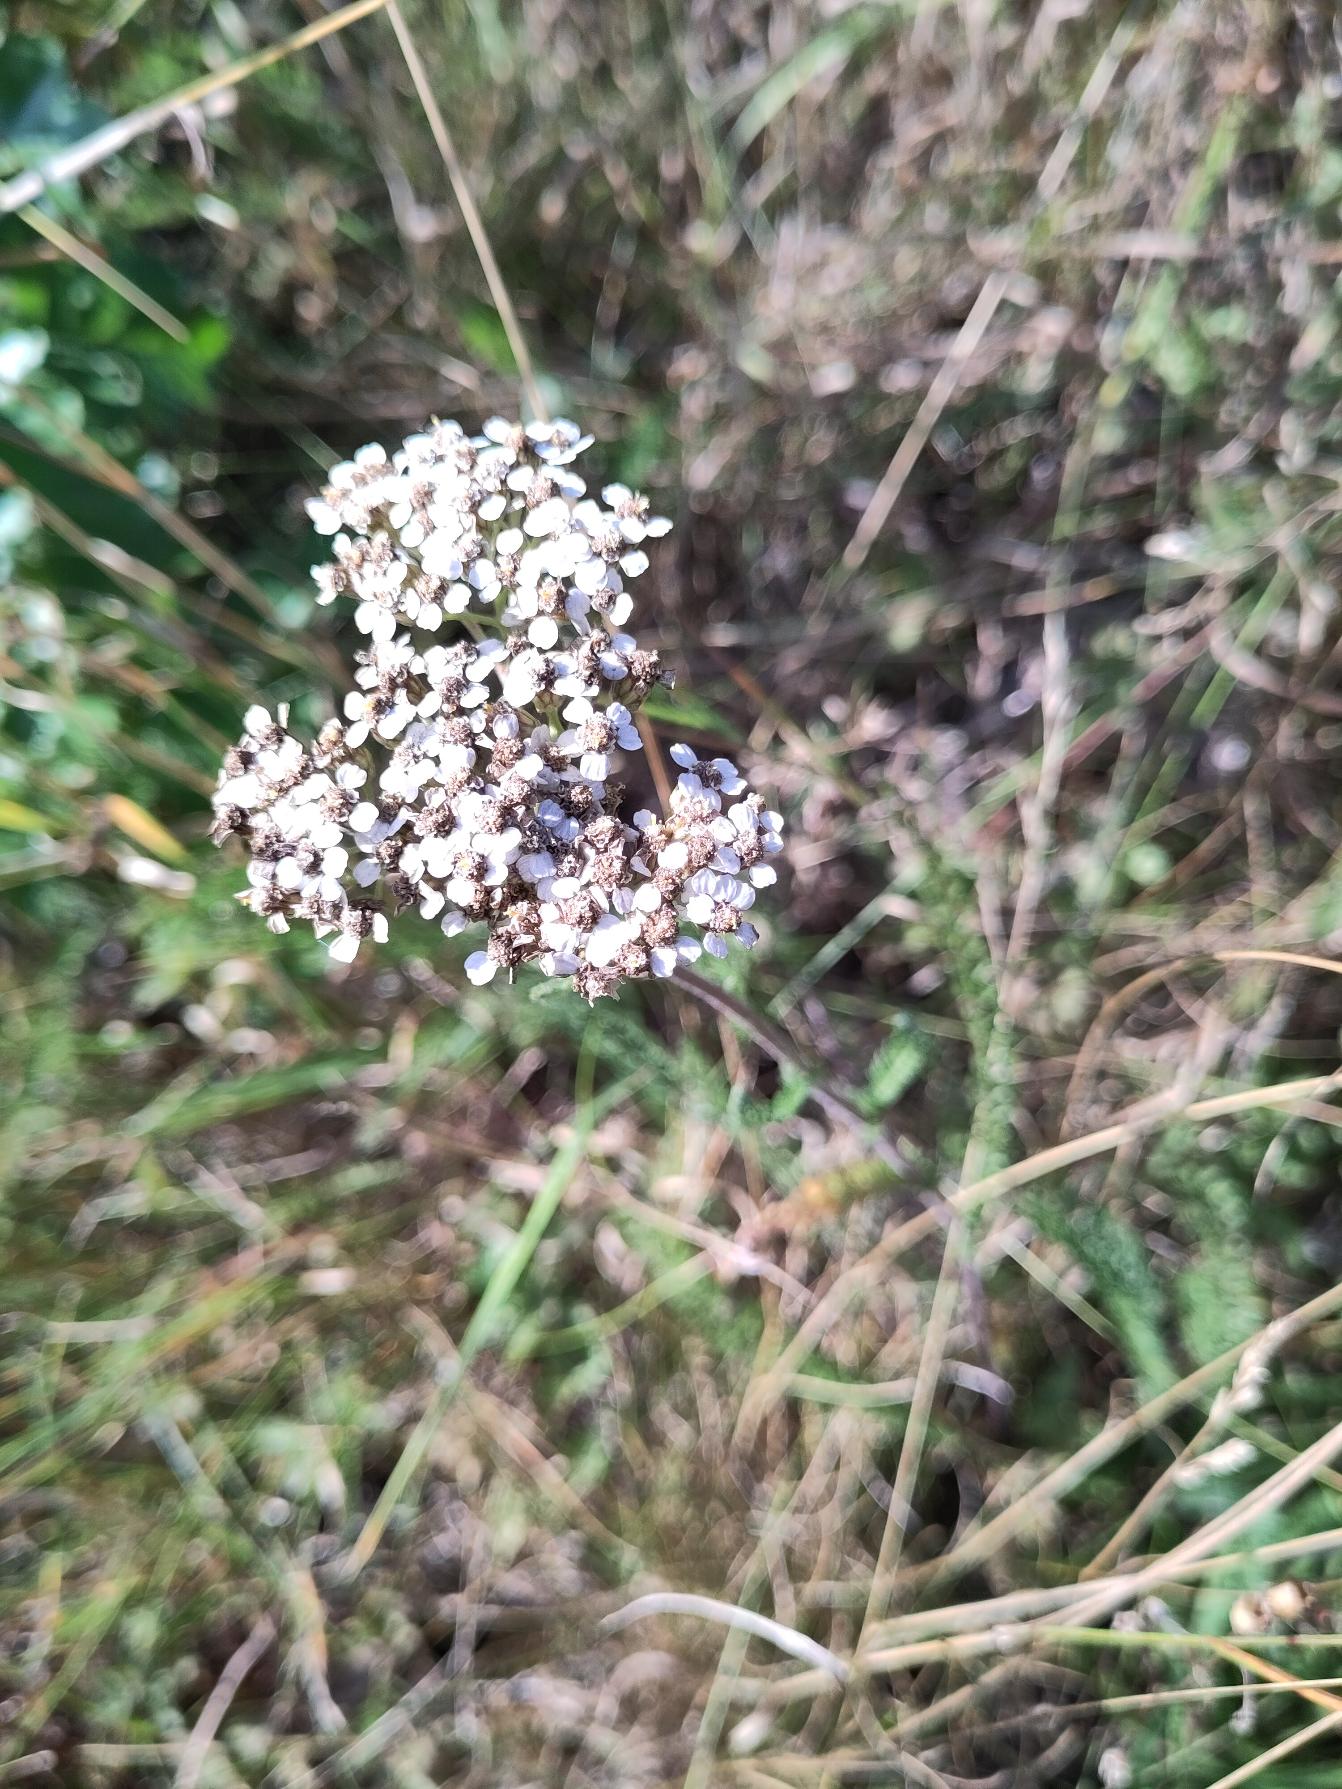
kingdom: Plantae
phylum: Tracheophyta
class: Magnoliopsida
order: Asterales
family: Asteraceae
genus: Achillea
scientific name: Achillea millefolium
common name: Almindelig røllike
